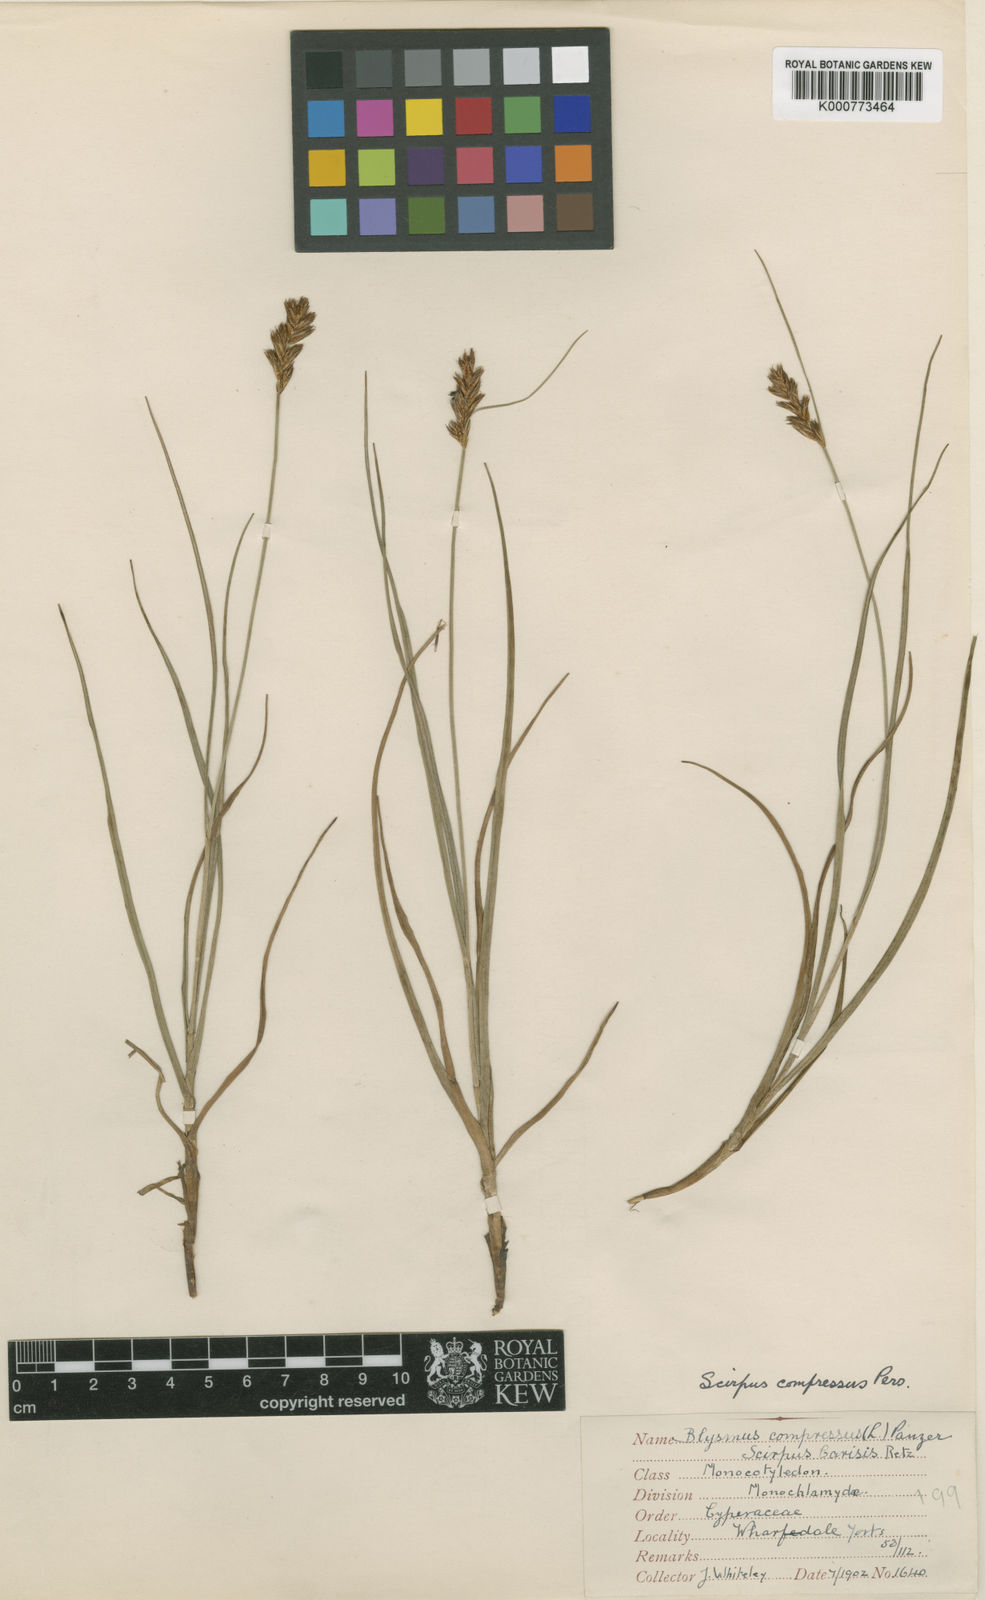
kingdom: Plantae
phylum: Tracheophyta
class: Liliopsida
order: Poales
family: Cyperaceae
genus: Blysmus
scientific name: Blysmus compressus
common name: Flat-sedge
